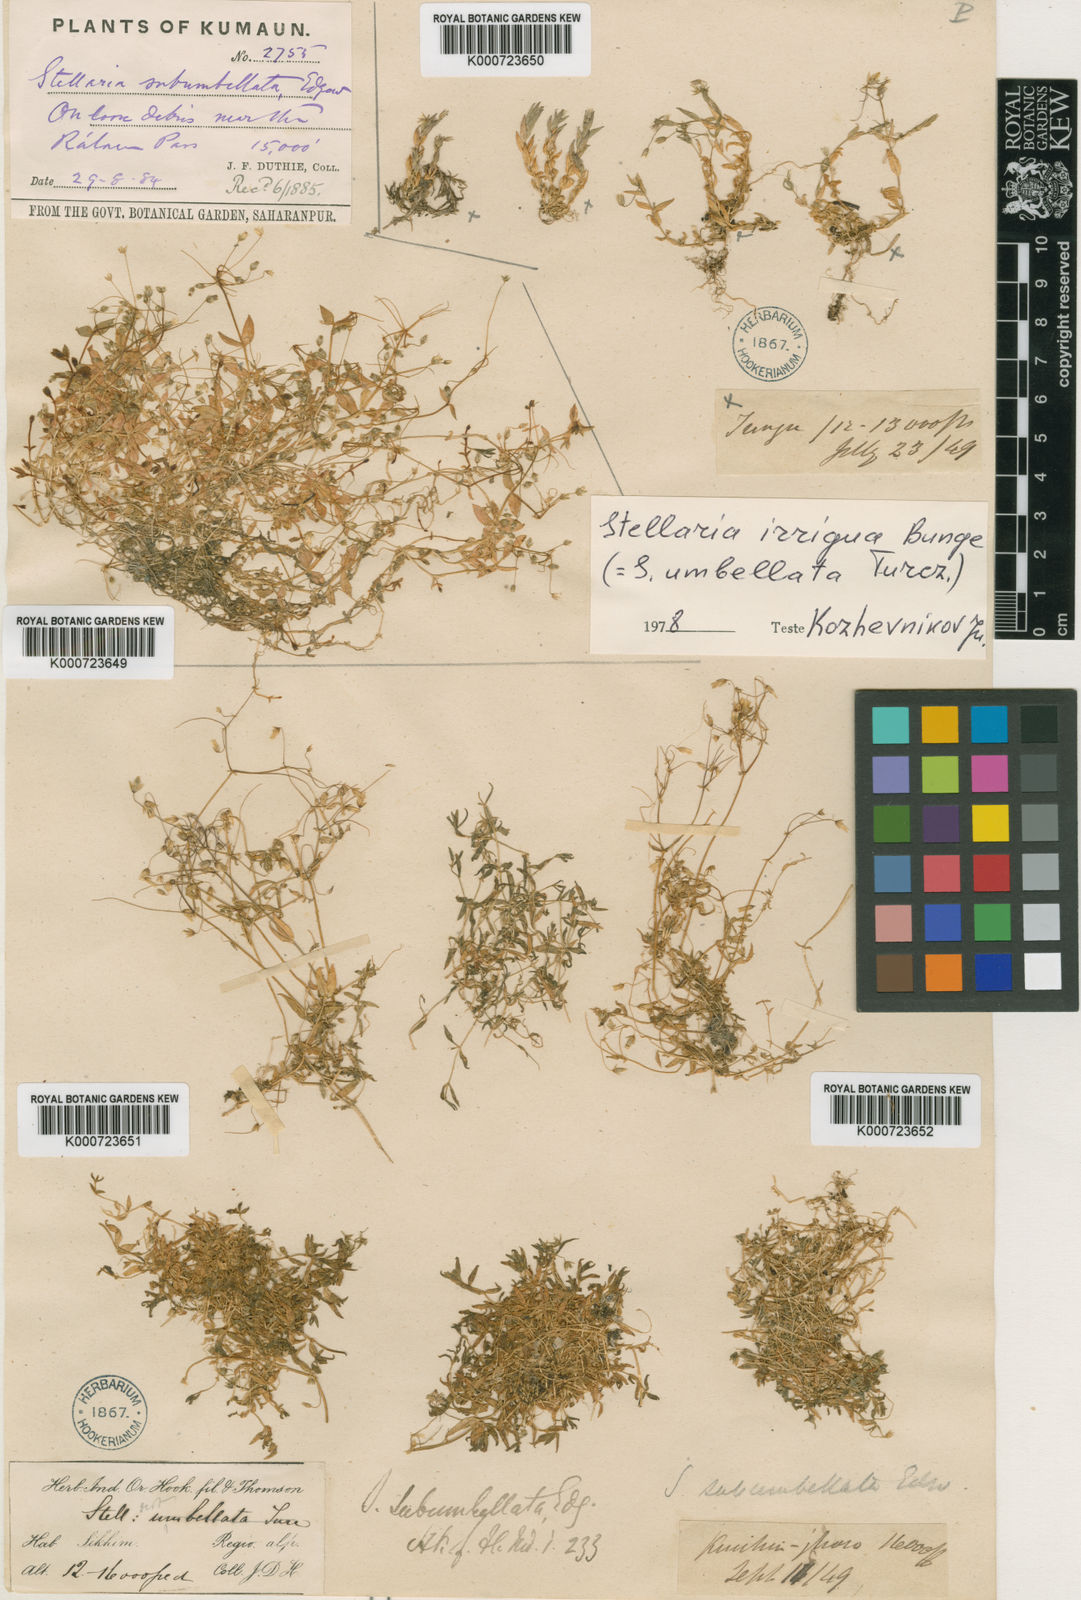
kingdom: Plantae
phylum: Tracheophyta
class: Magnoliopsida
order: Caryophyllales
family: Caryophyllaceae
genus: Stellaria
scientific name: Stellaria irrigua
